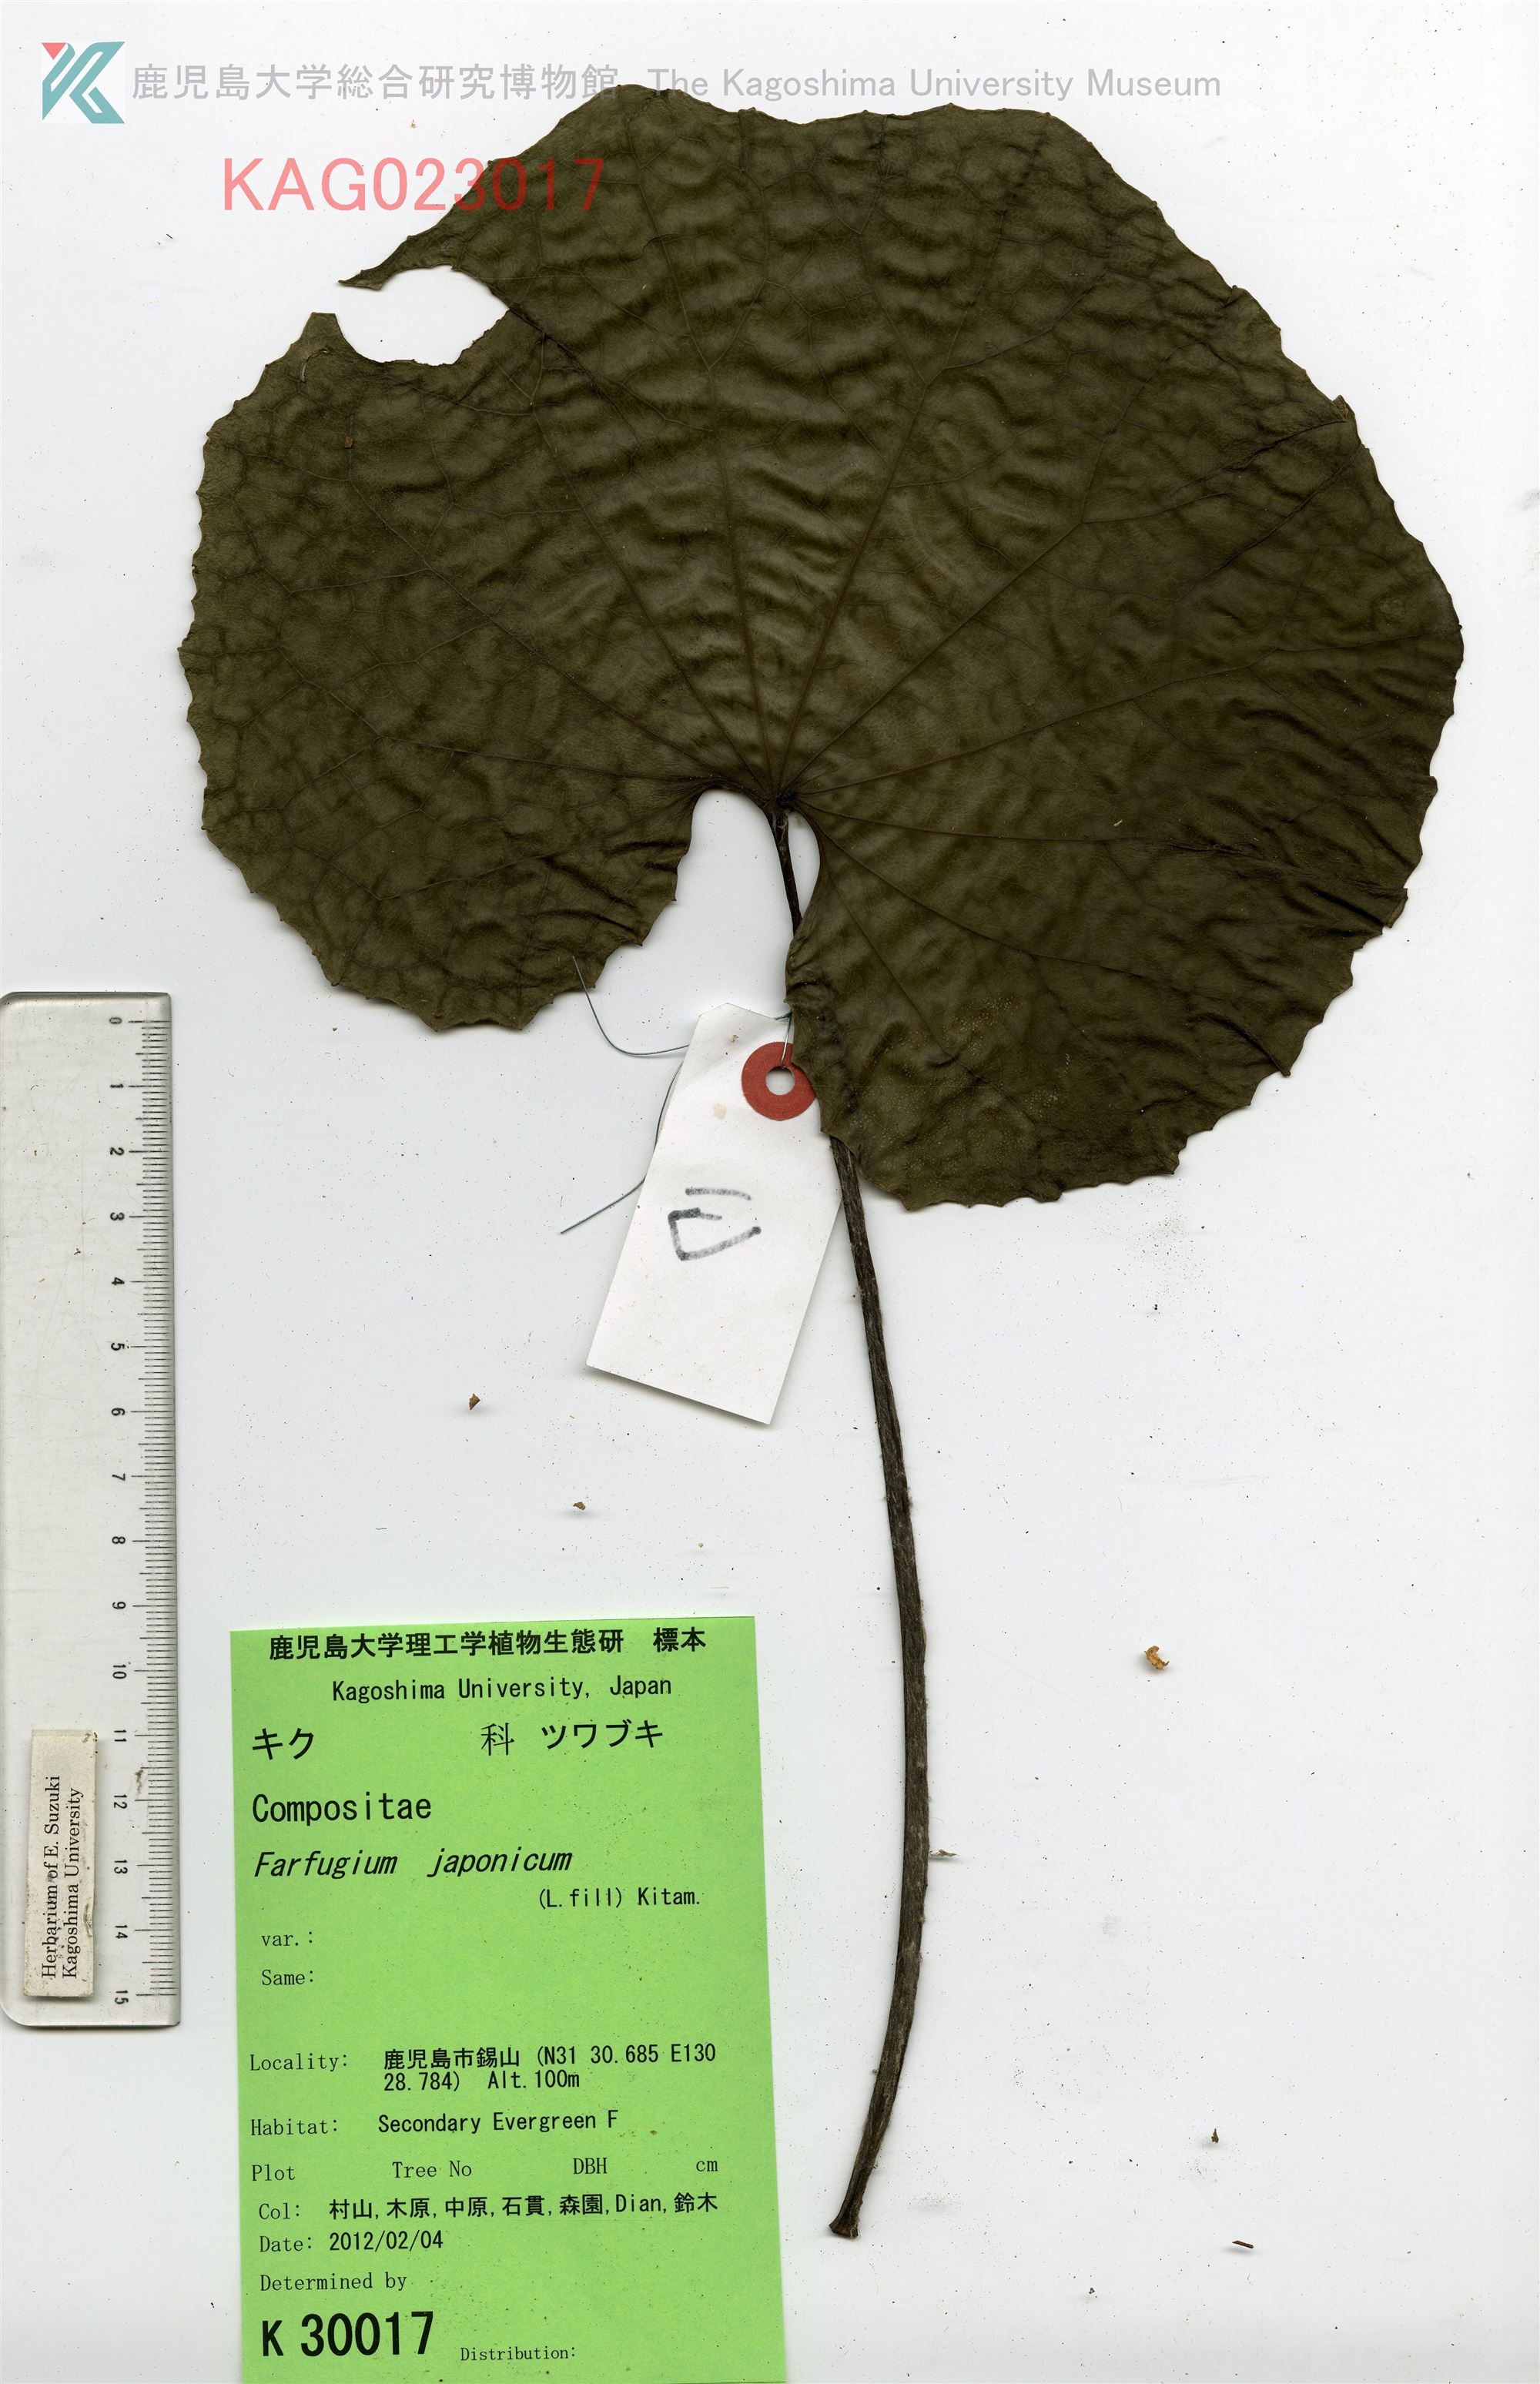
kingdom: Plantae
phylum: Tracheophyta
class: Magnoliopsida
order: Asterales
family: Asteraceae
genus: Farfugium
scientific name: Farfugium japonicum
